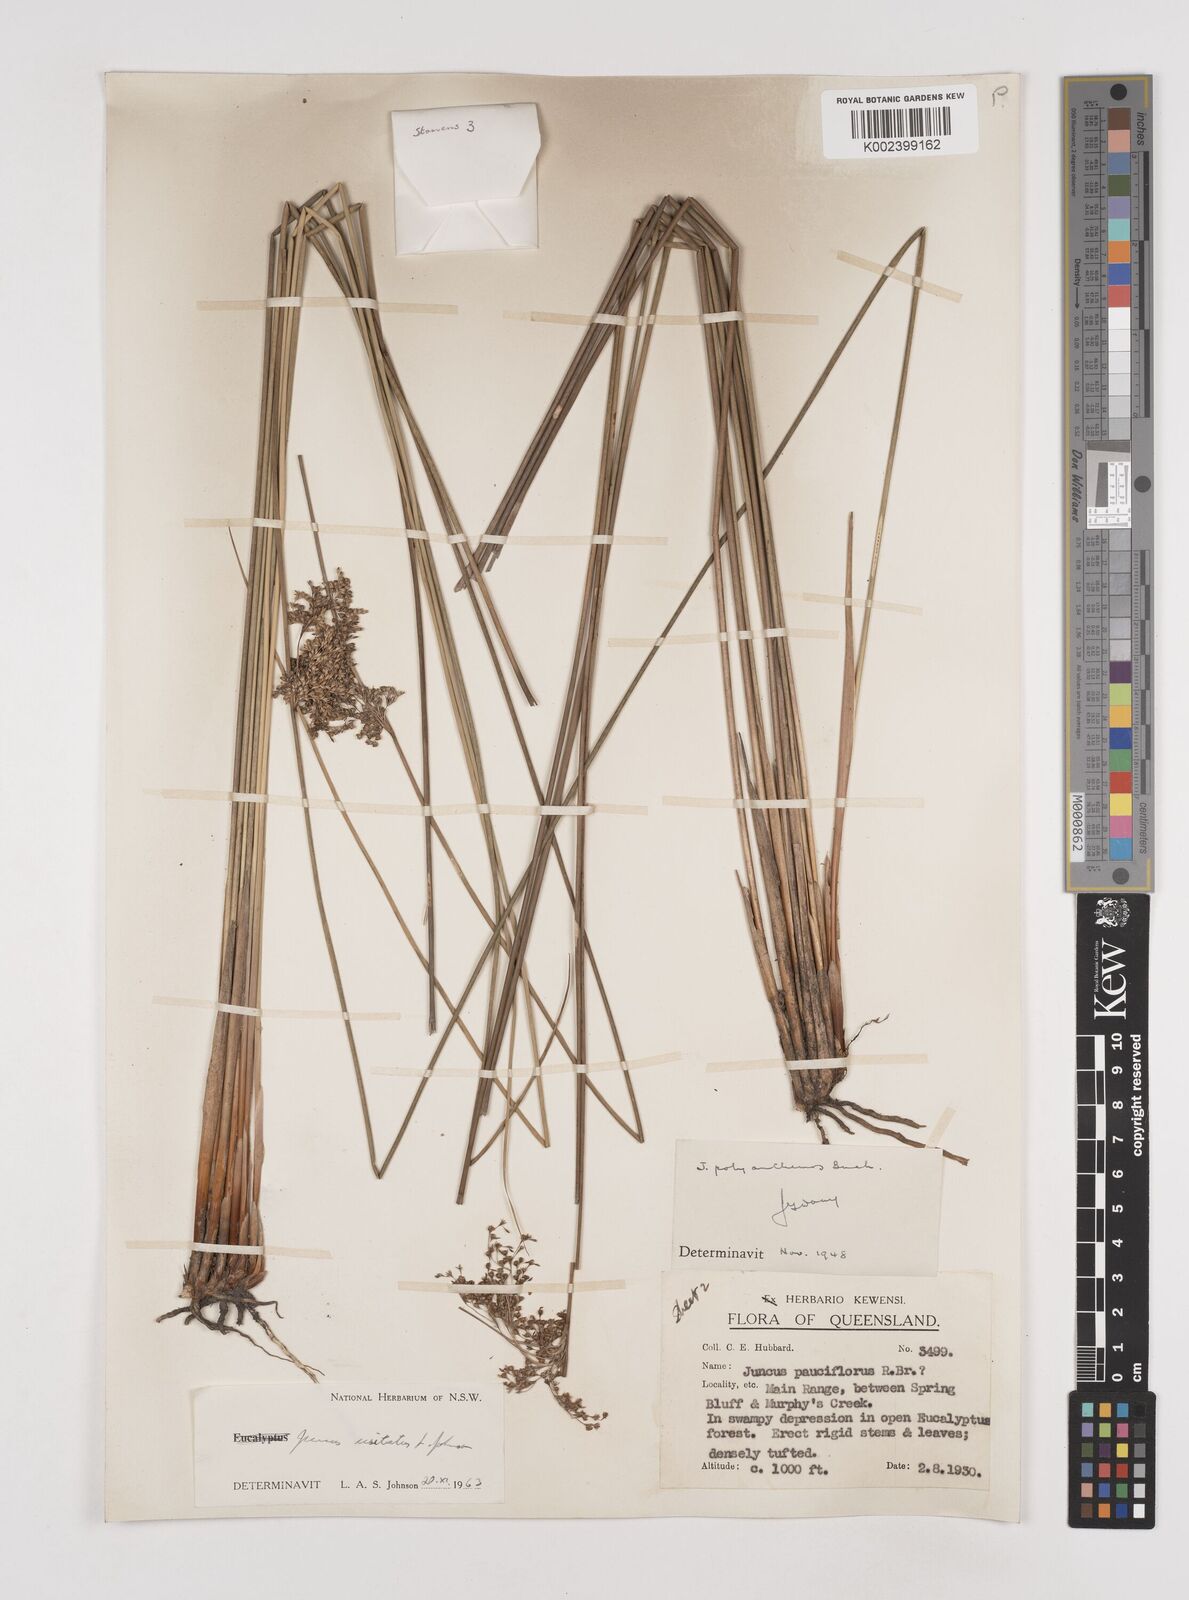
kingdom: Plantae
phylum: Tracheophyta
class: Liliopsida
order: Poales
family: Juncaceae
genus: Juncus
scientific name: Juncus usitatus
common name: Rush
